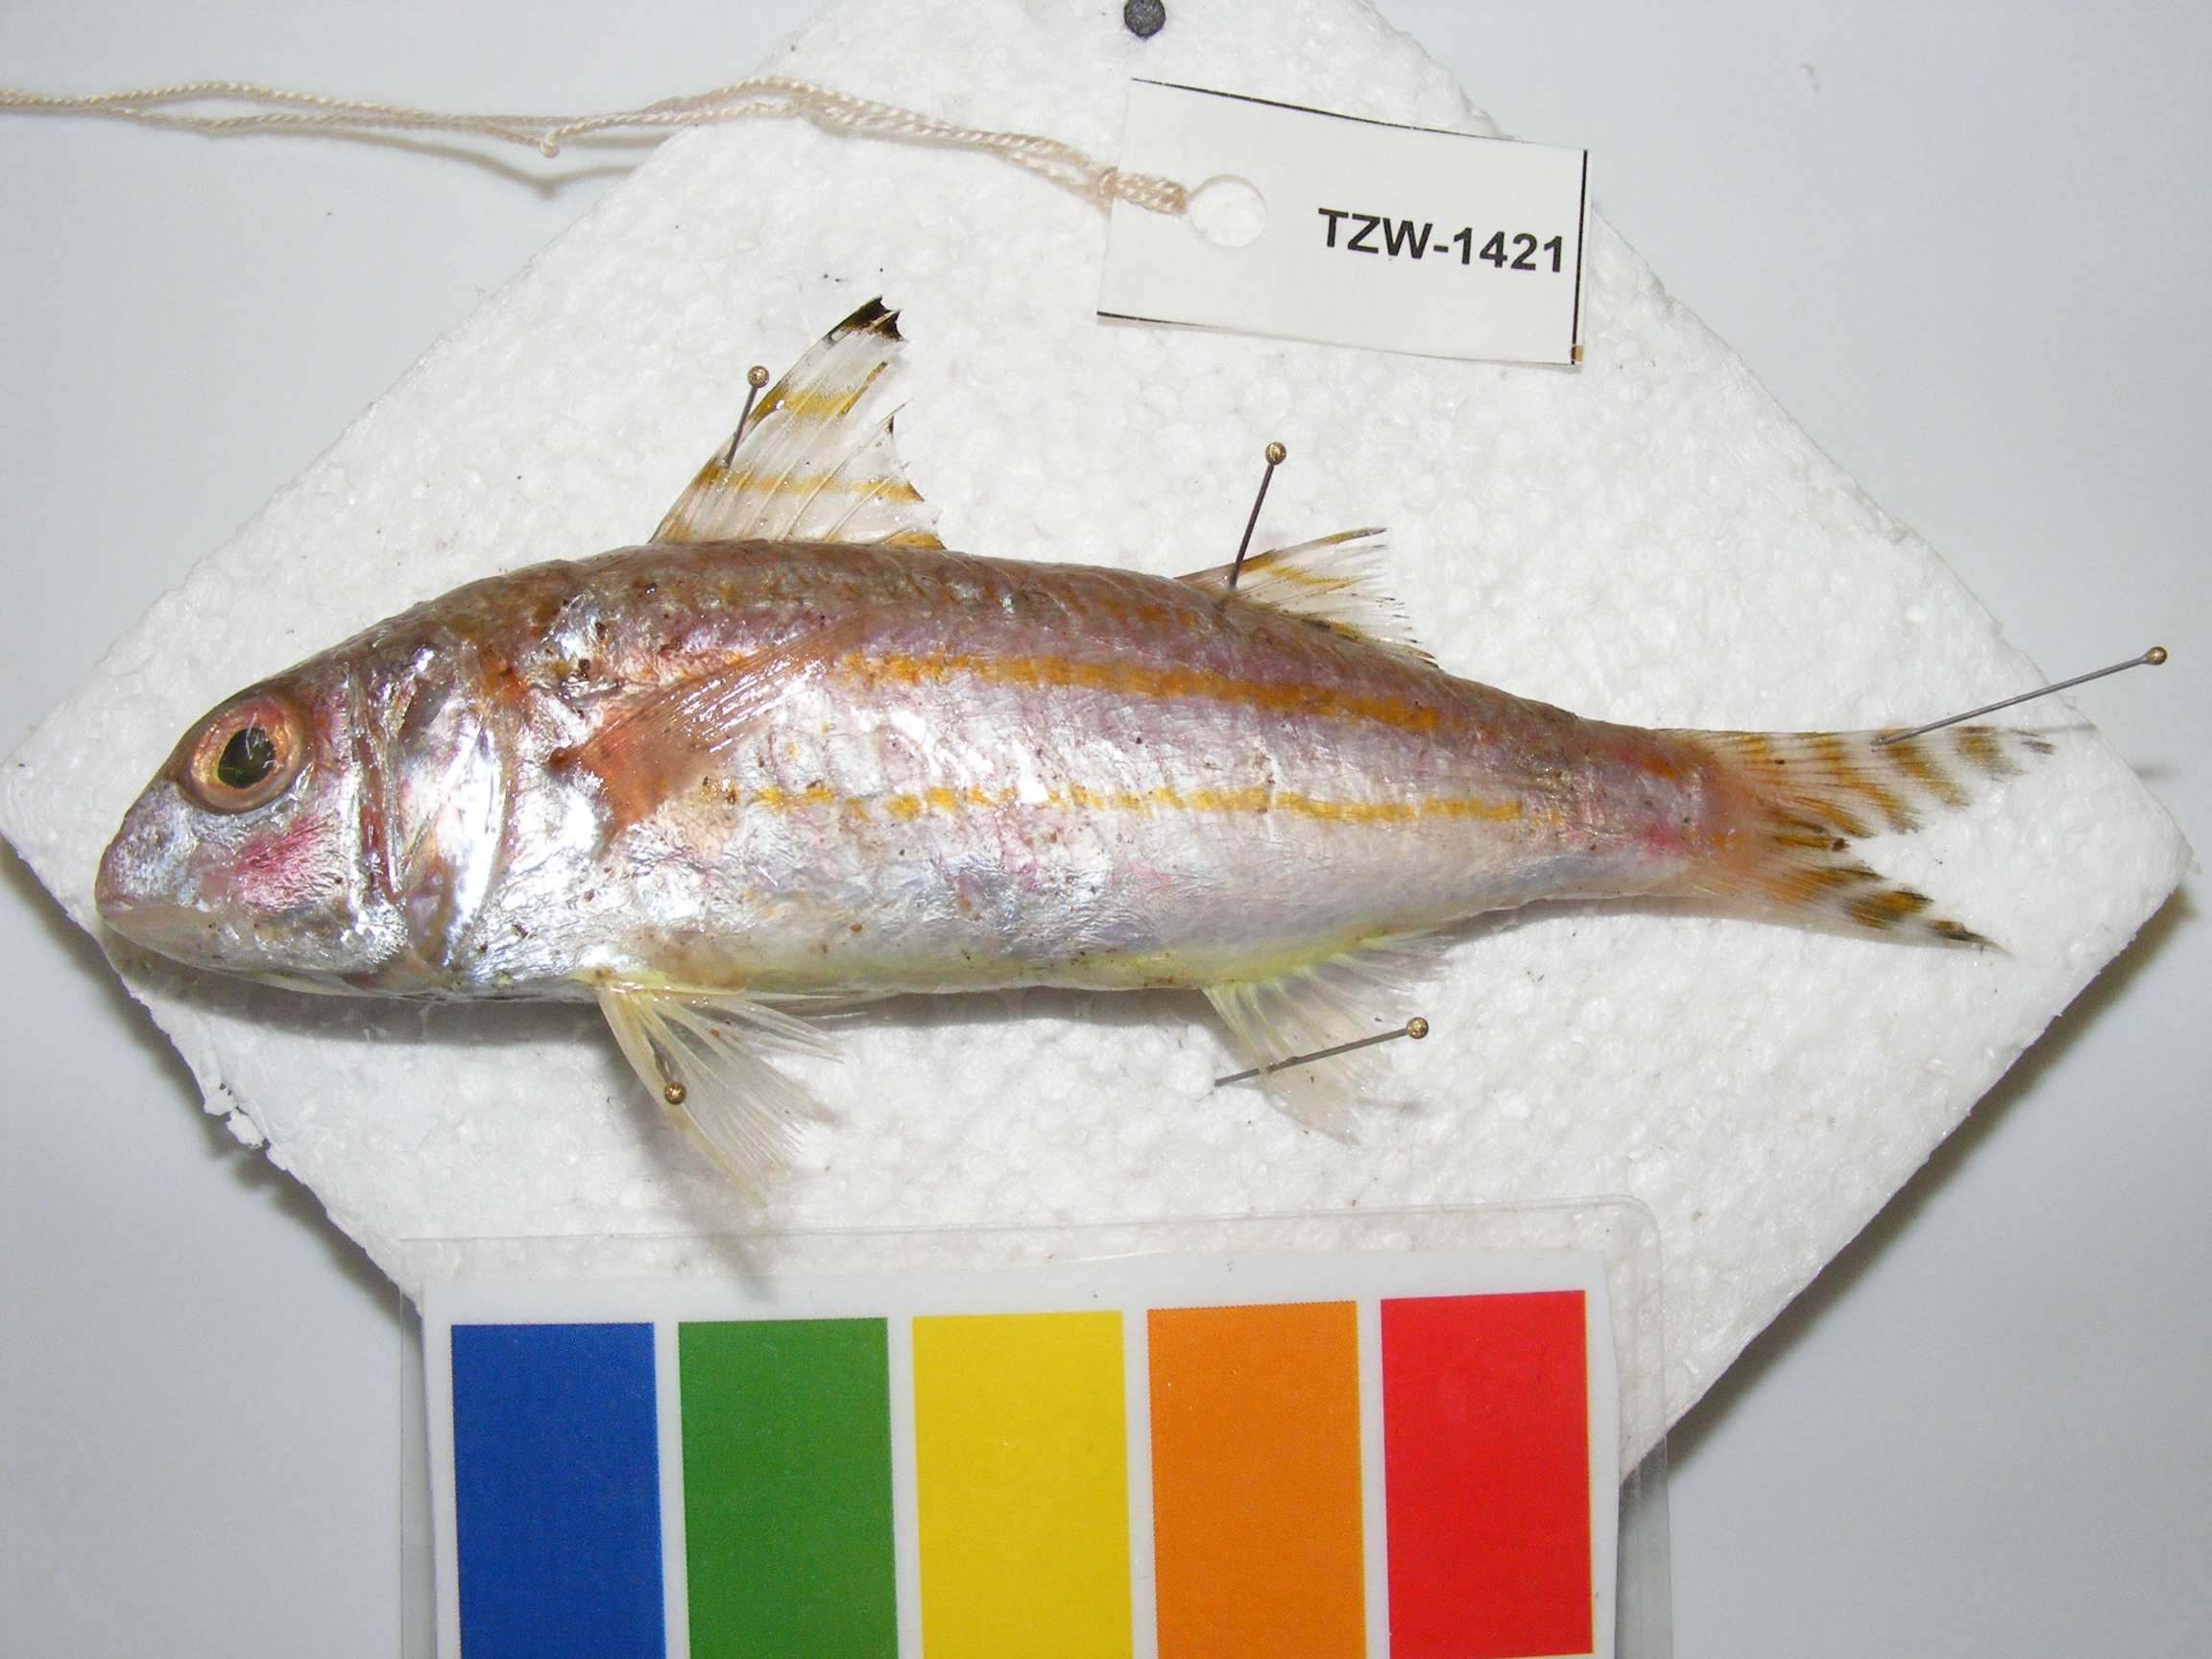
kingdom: Animalia
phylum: Chordata
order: Perciformes
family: Mullidae
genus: Upeneus
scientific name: Upeneus suahelicus
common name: Swahili goatfish
